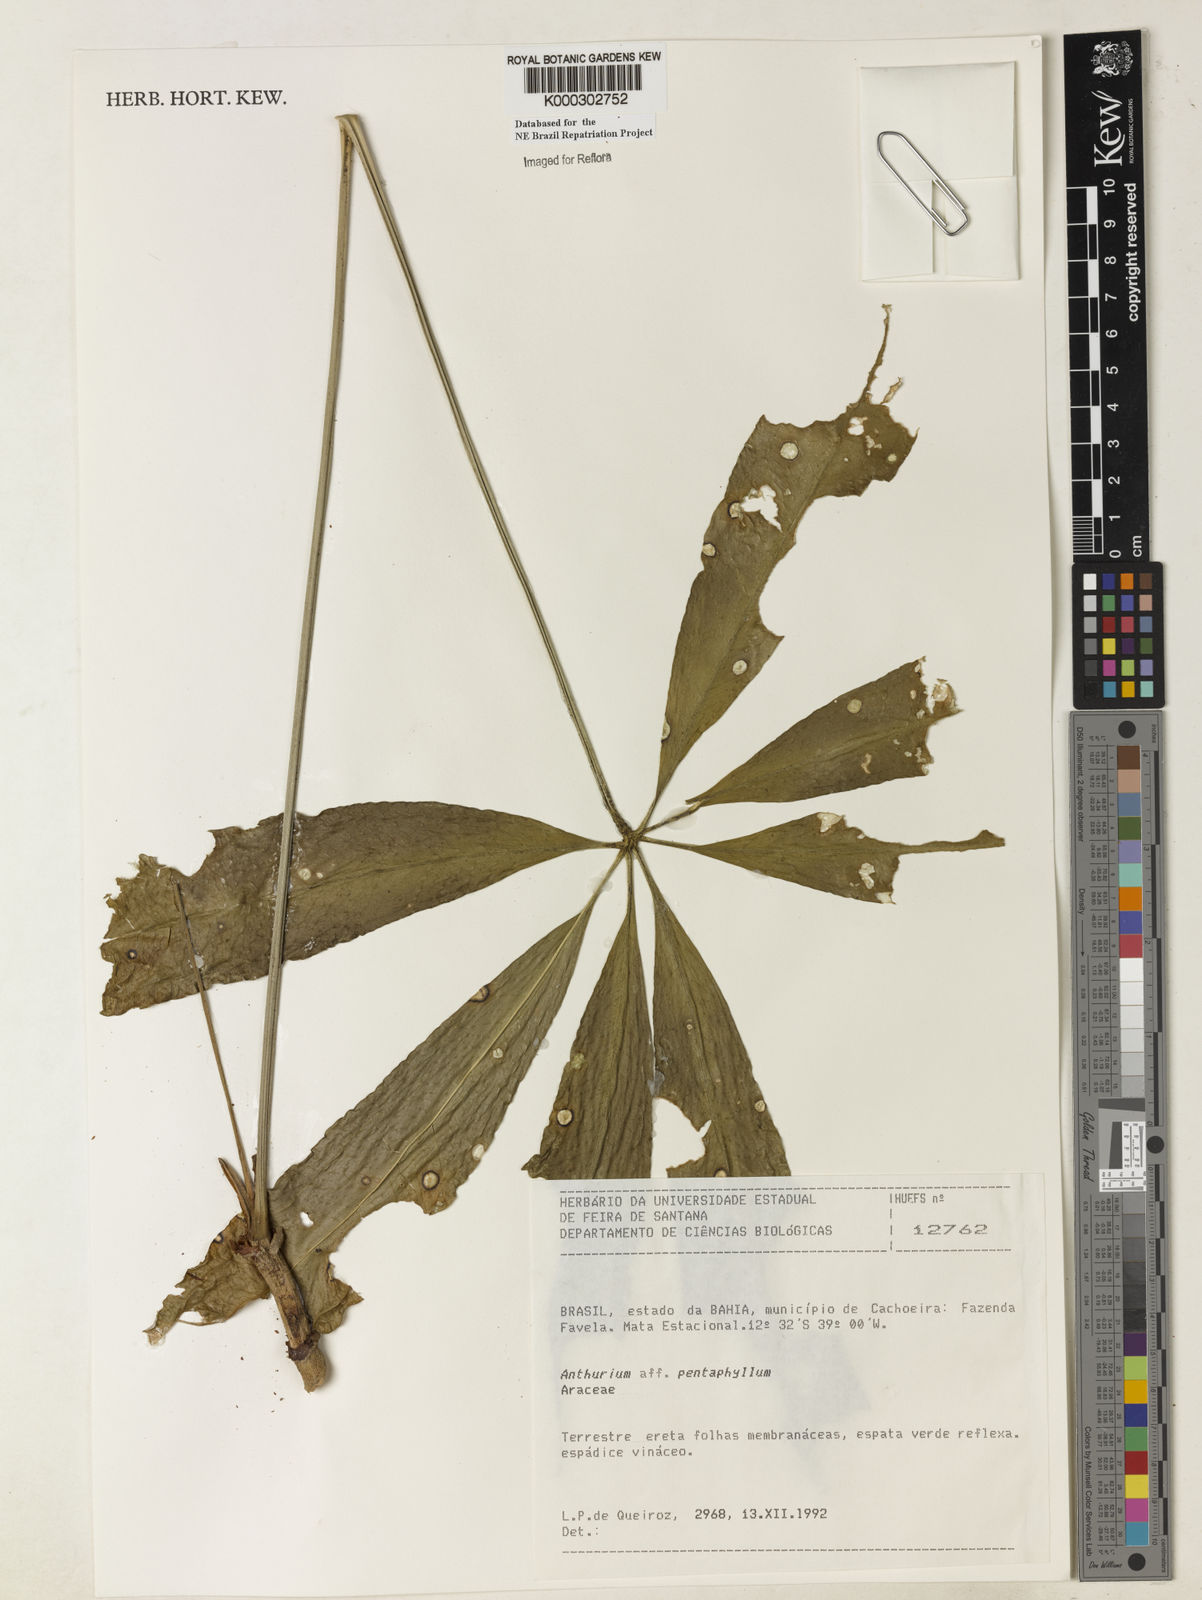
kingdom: Plantae
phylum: Tracheophyta
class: Liliopsida
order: Alismatales
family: Araceae
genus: Anthurium
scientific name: Anthurium pentaphyllum
